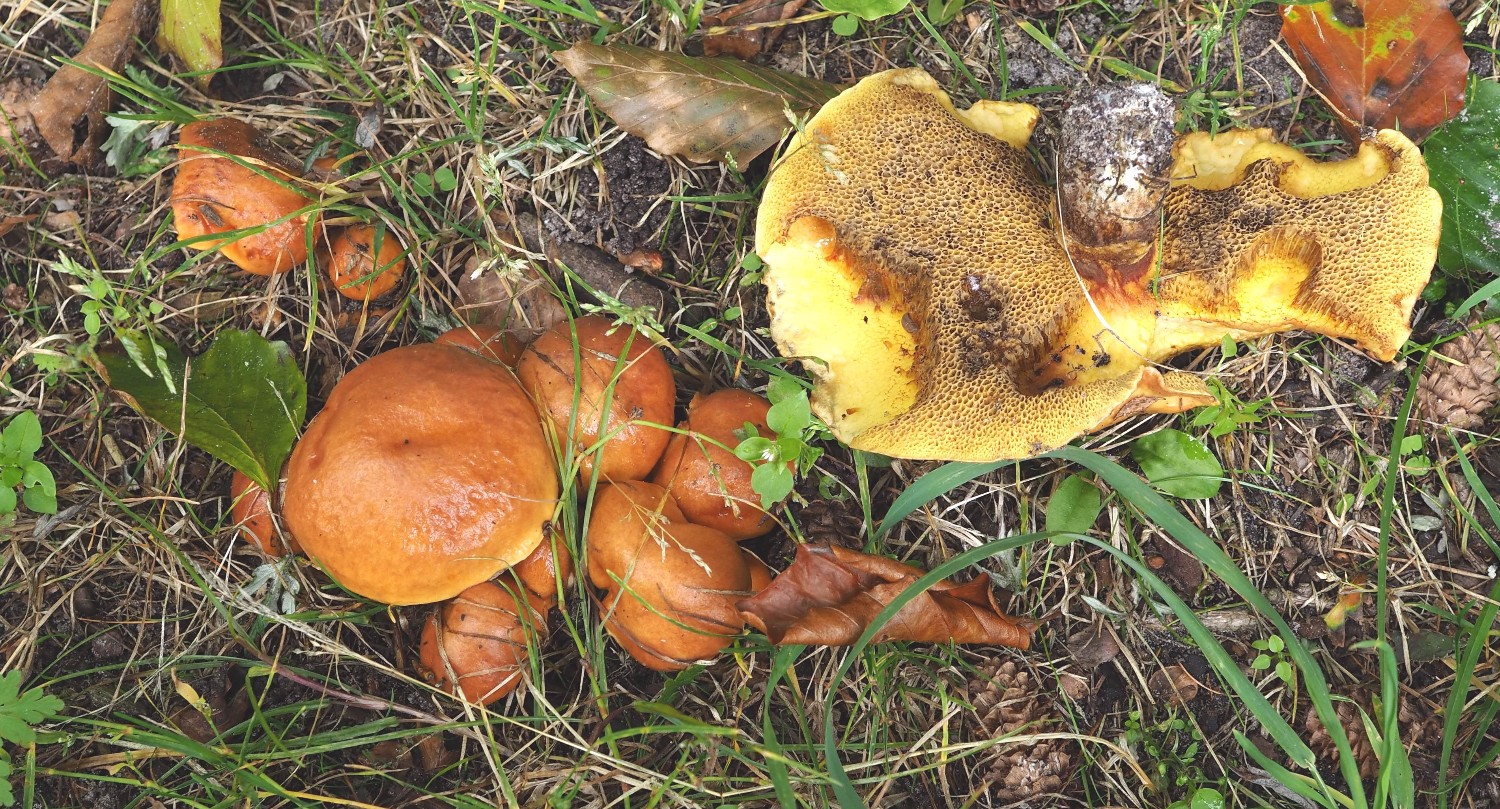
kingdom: Fungi
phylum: Basidiomycota
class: Agaricomycetes
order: Boletales
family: Suillaceae
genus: Suillus
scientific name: Suillus grevillei
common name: lærke-slimrørhat
